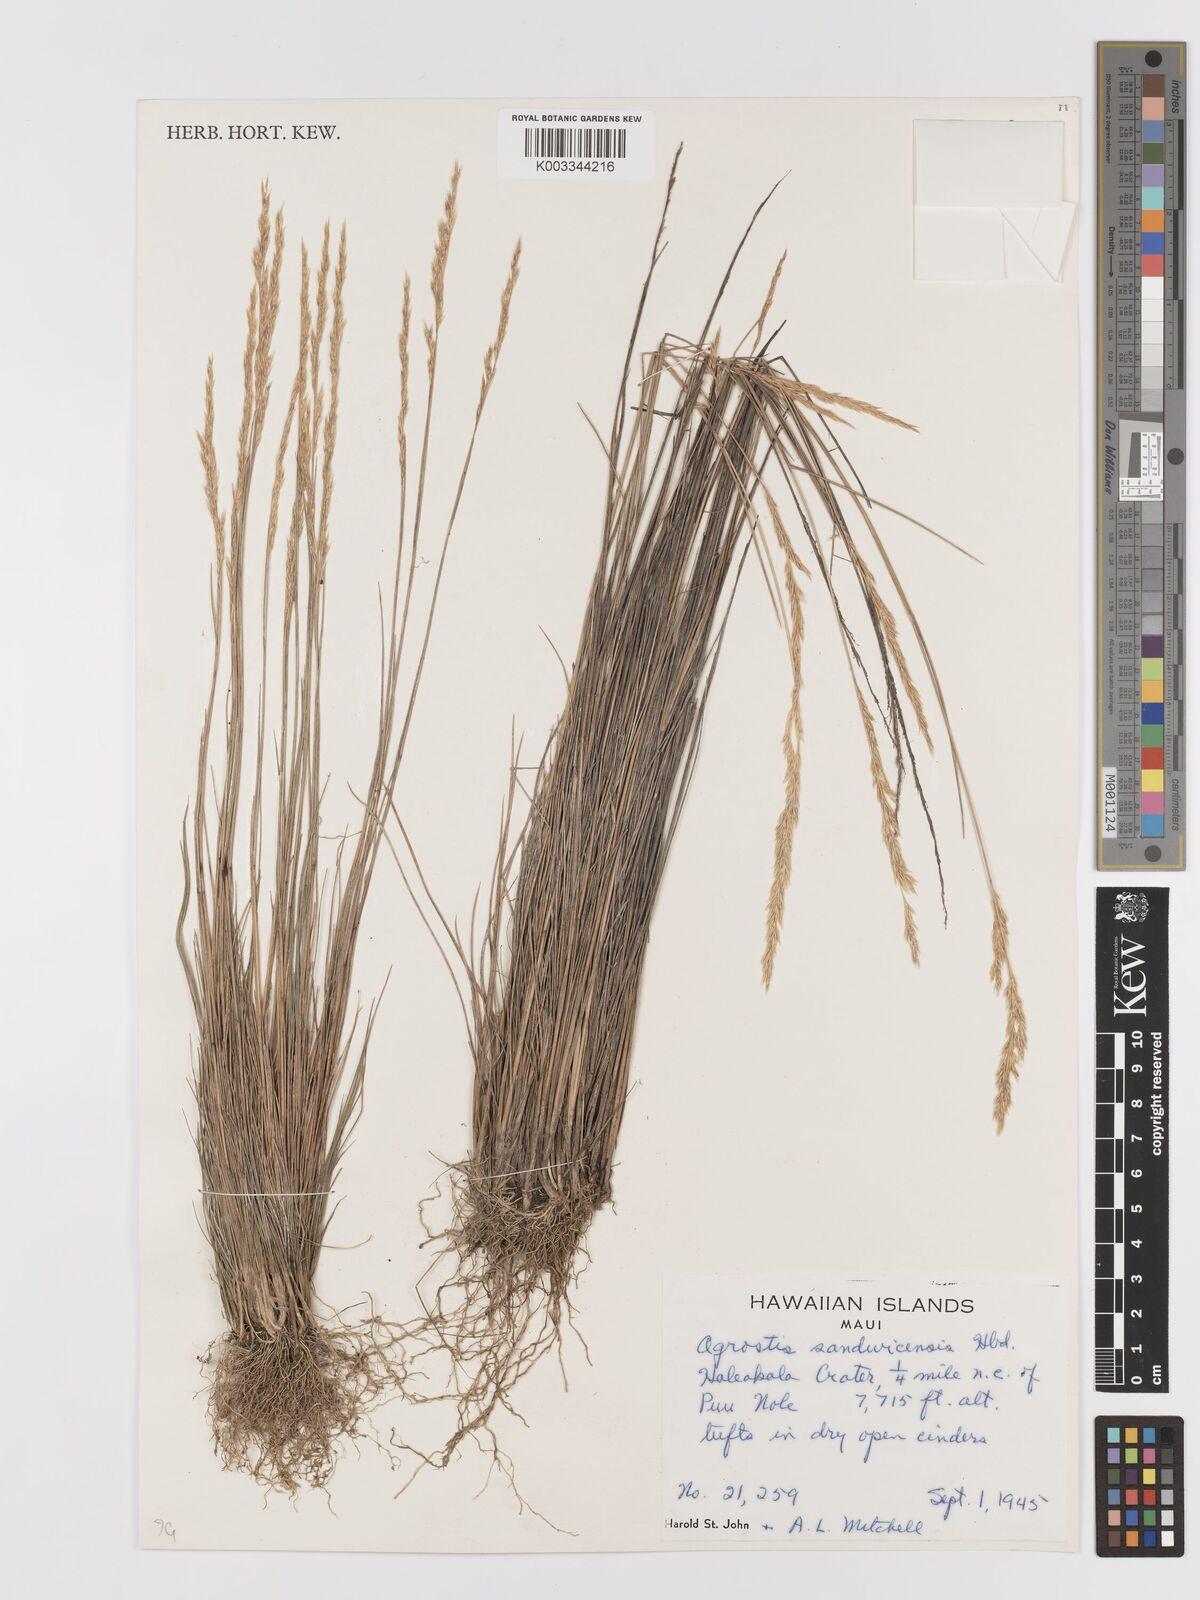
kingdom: Plantae
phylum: Tracheophyta
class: Liliopsida
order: Poales
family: Poaceae
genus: Agrostis
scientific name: Agrostis
